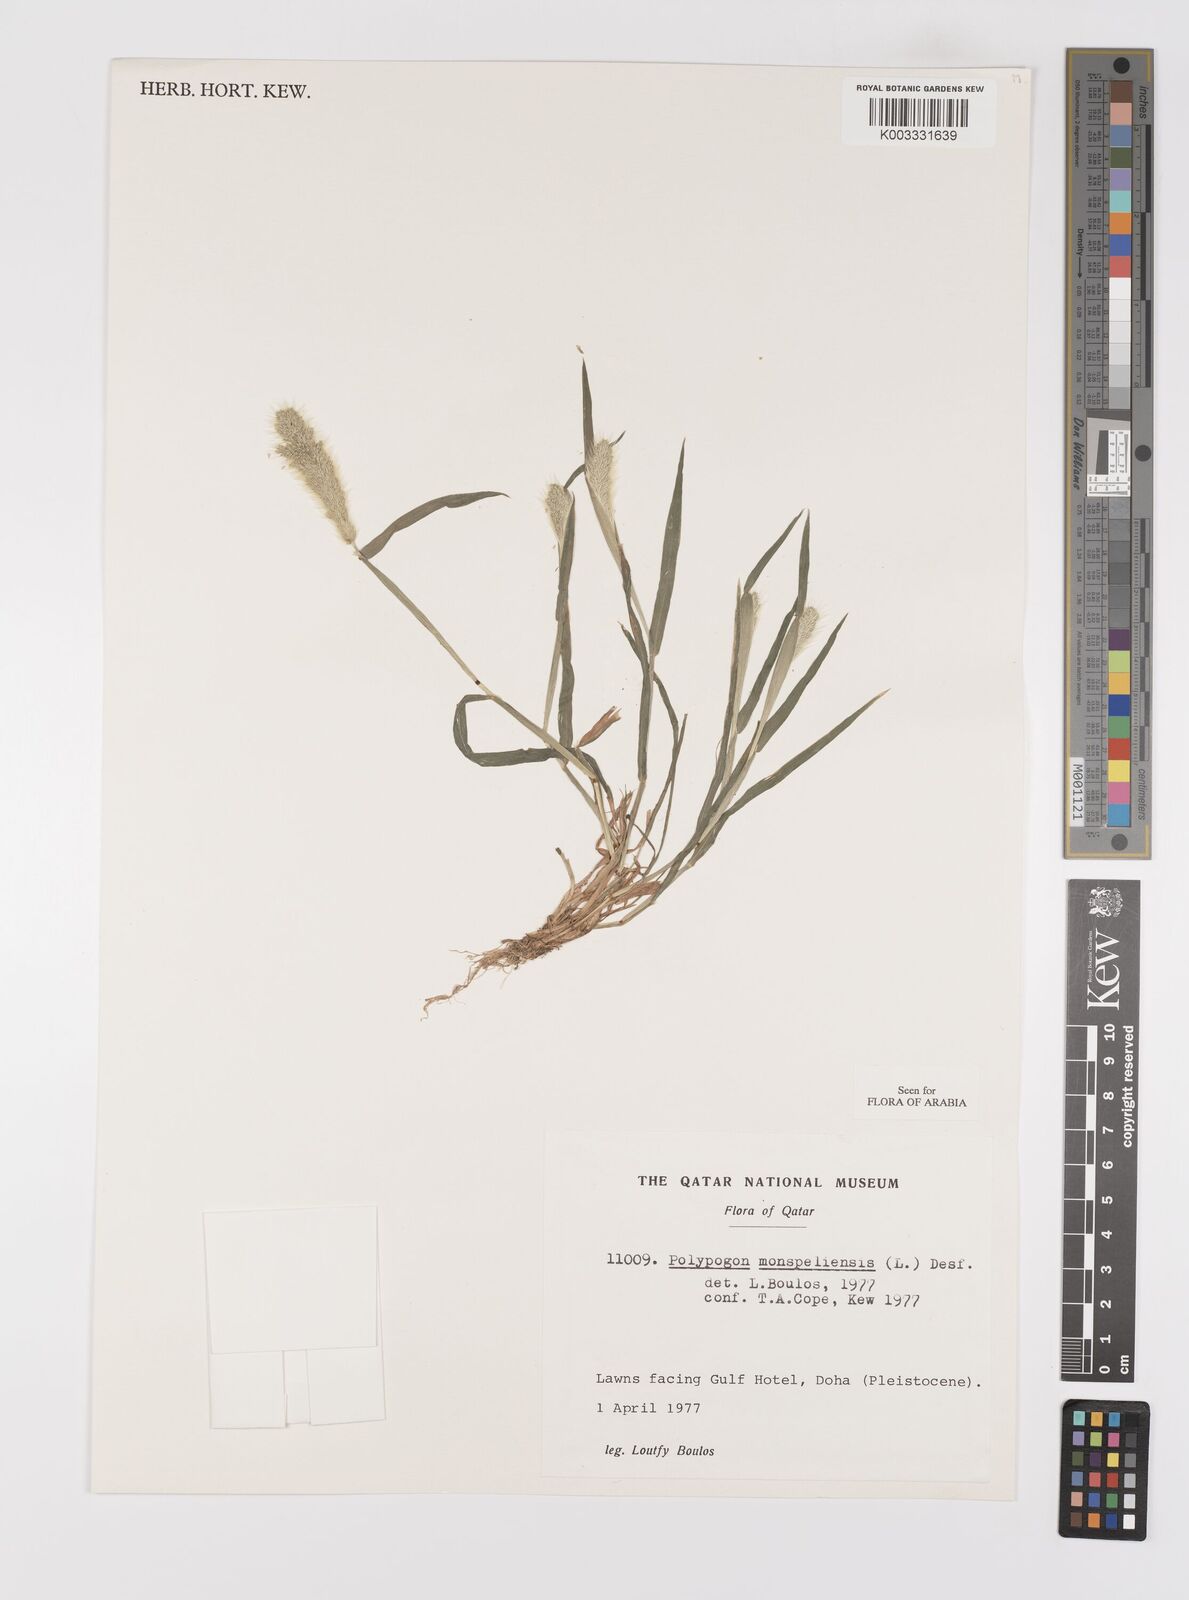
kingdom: Plantae
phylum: Tracheophyta
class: Liliopsida
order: Poales
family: Poaceae
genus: Polypogon
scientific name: Polypogon monspeliensis
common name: Annual rabbitsfoot grass
